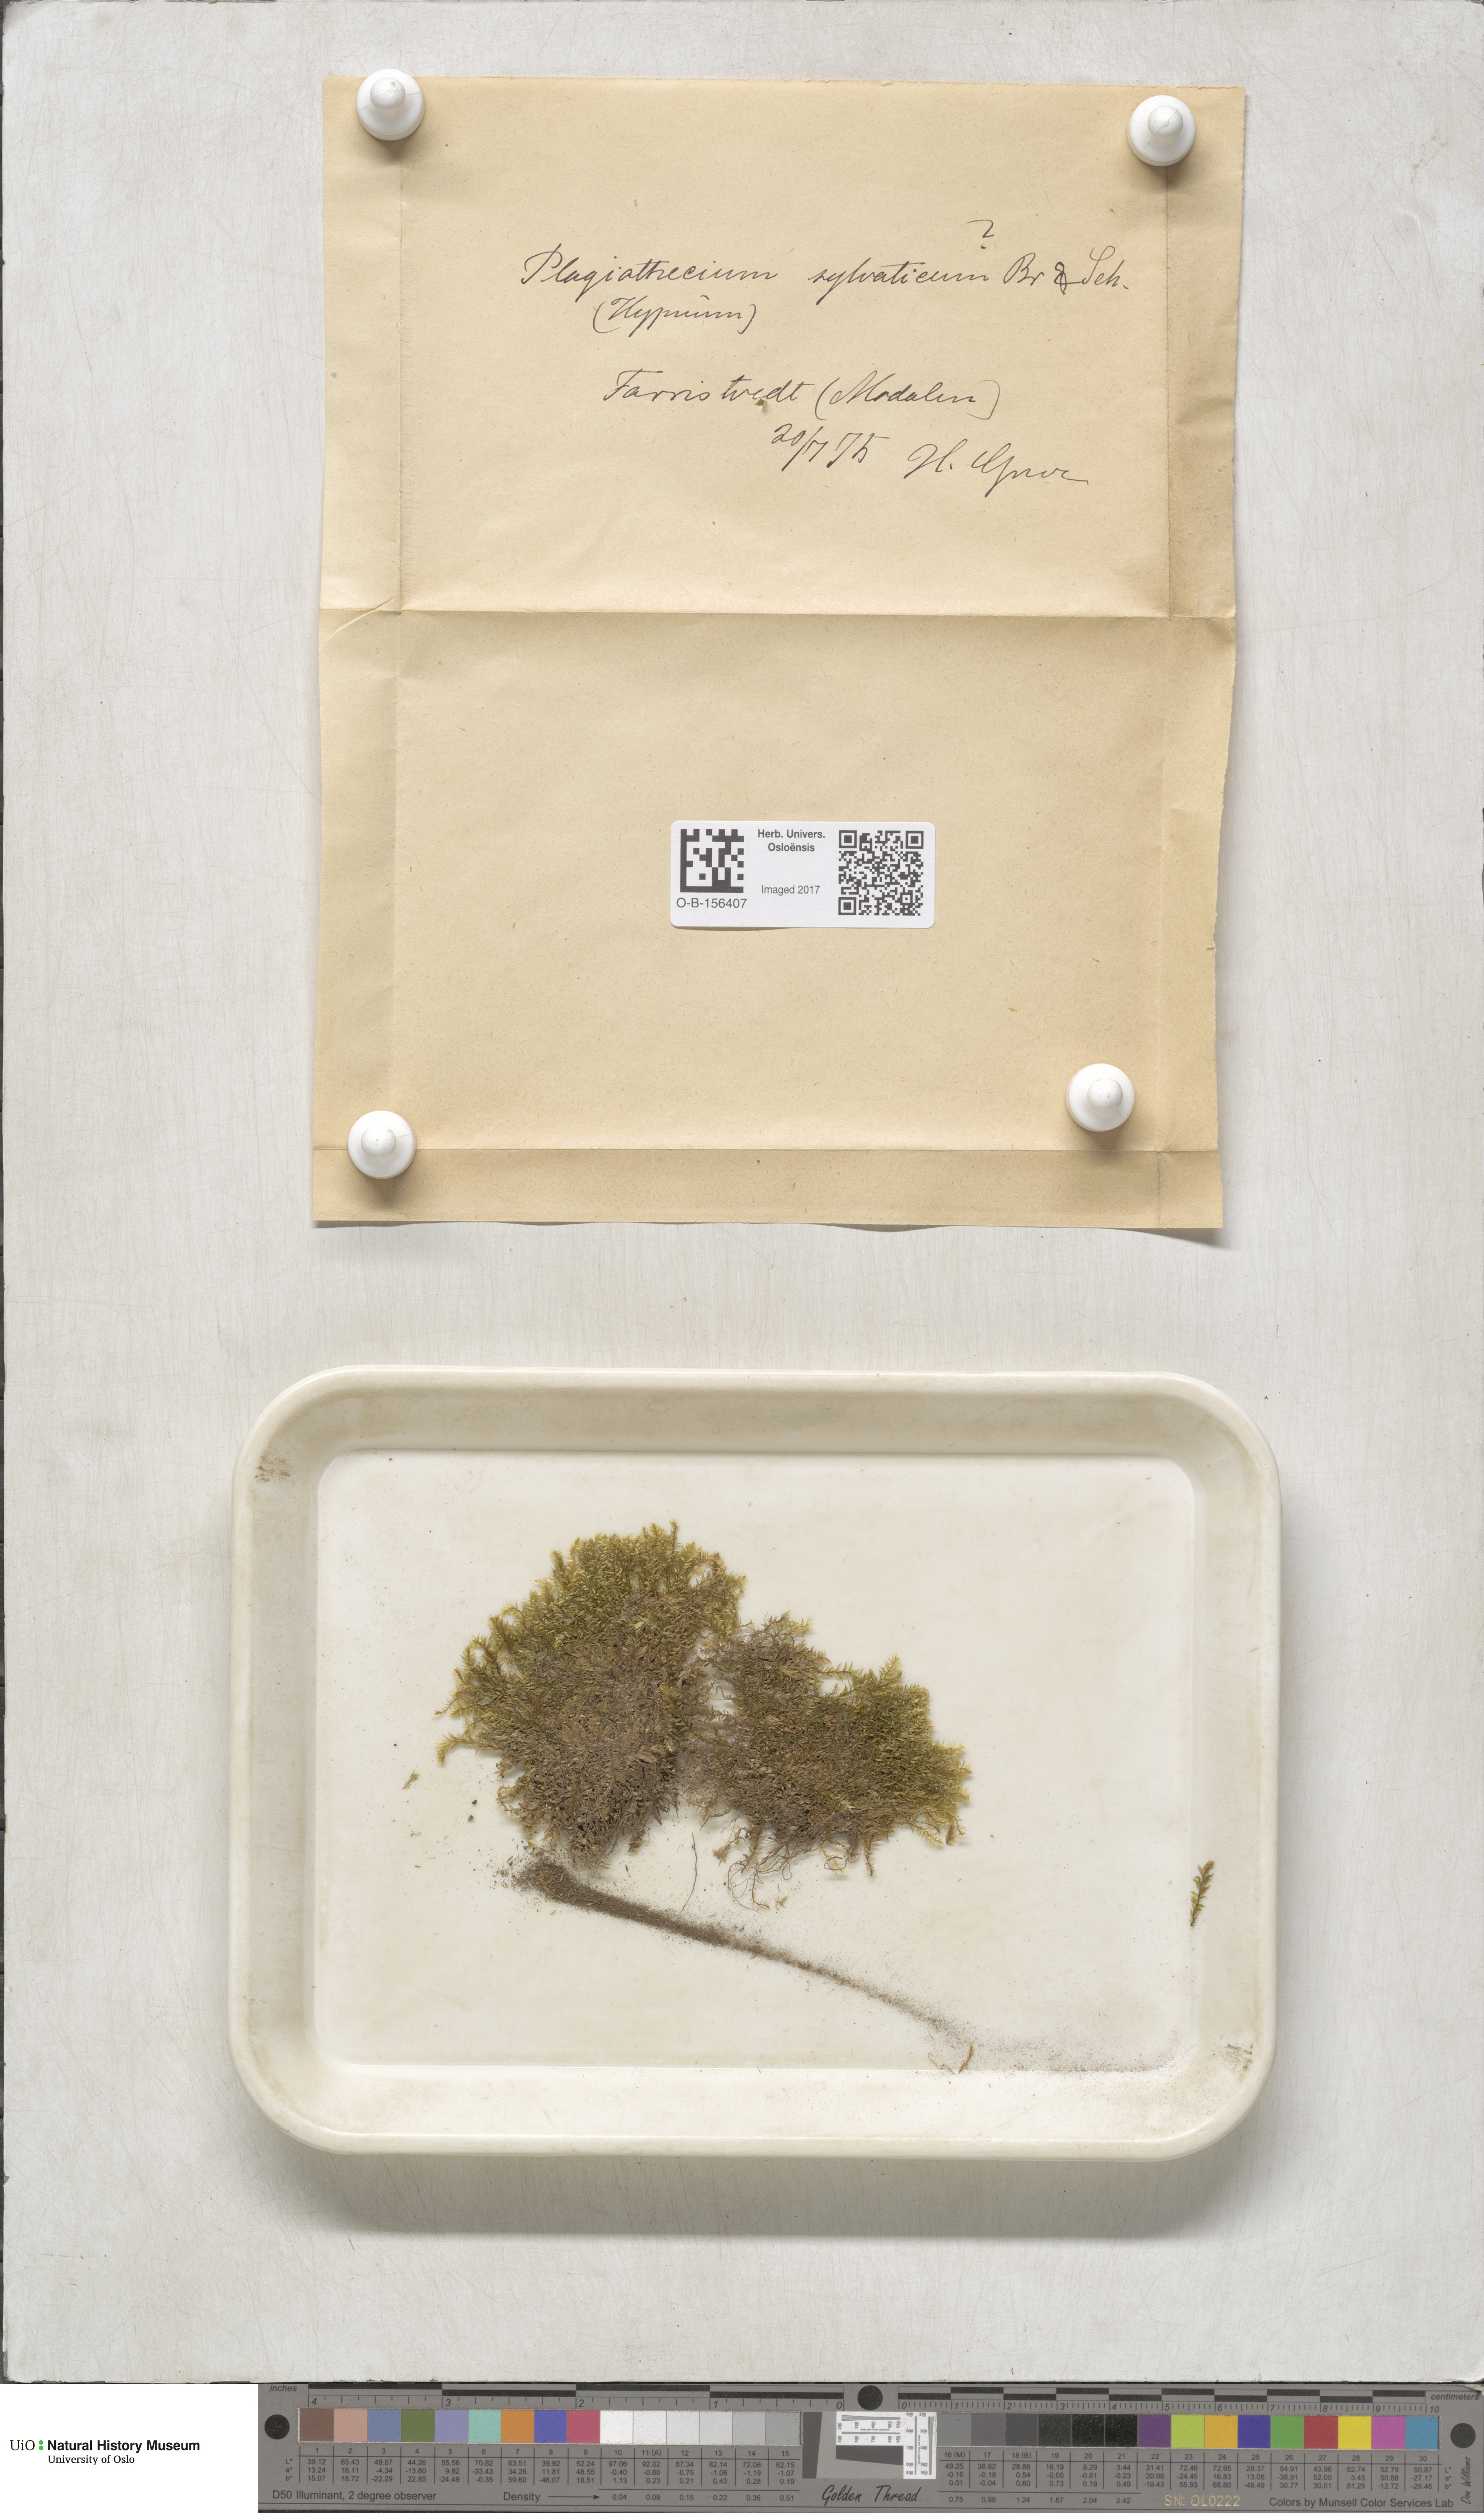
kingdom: Plantae
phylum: Bryophyta
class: Bryopsida
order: Hypnales
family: Plagiotheciaceae
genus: Plagiothecium
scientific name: Plagiothecium nemorale
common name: Woodsy silk-moss
